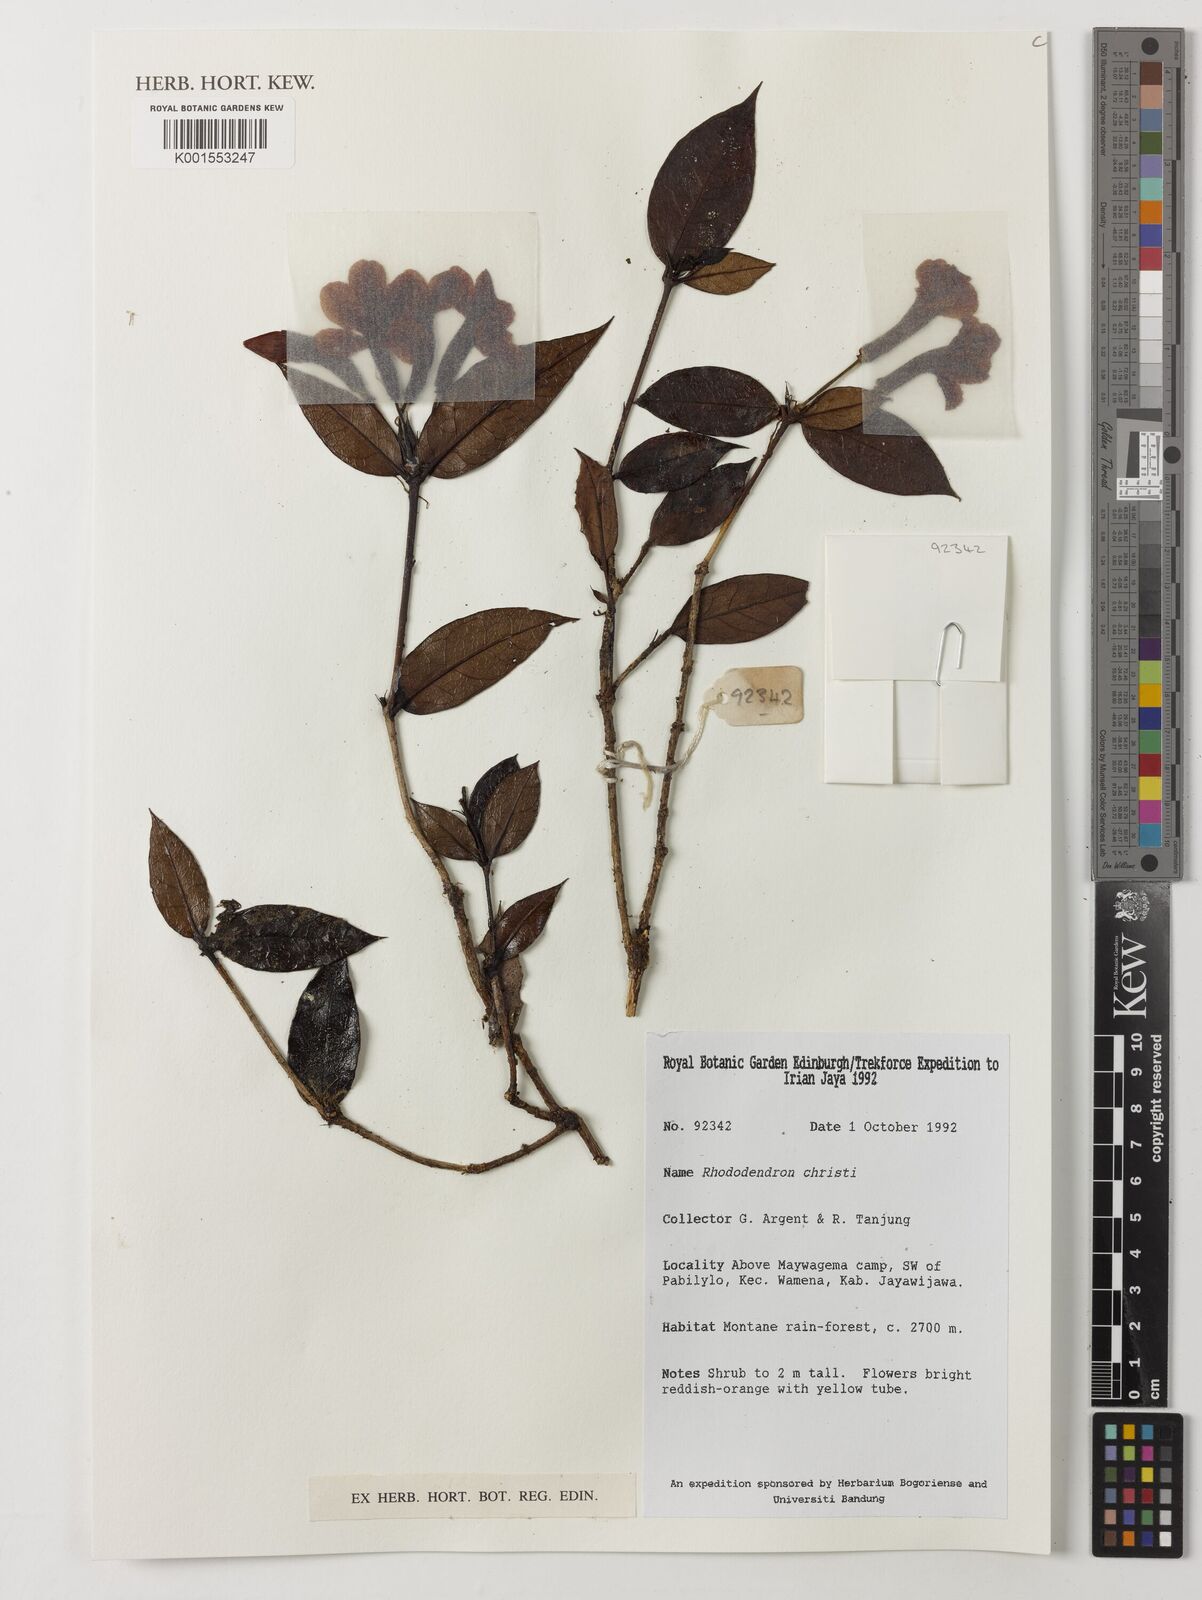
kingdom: Plantae
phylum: Tracheophyta
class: Magnoliopsida
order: Ericales
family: Ericaceae
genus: Rhododendron
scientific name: Rhododendron christi
